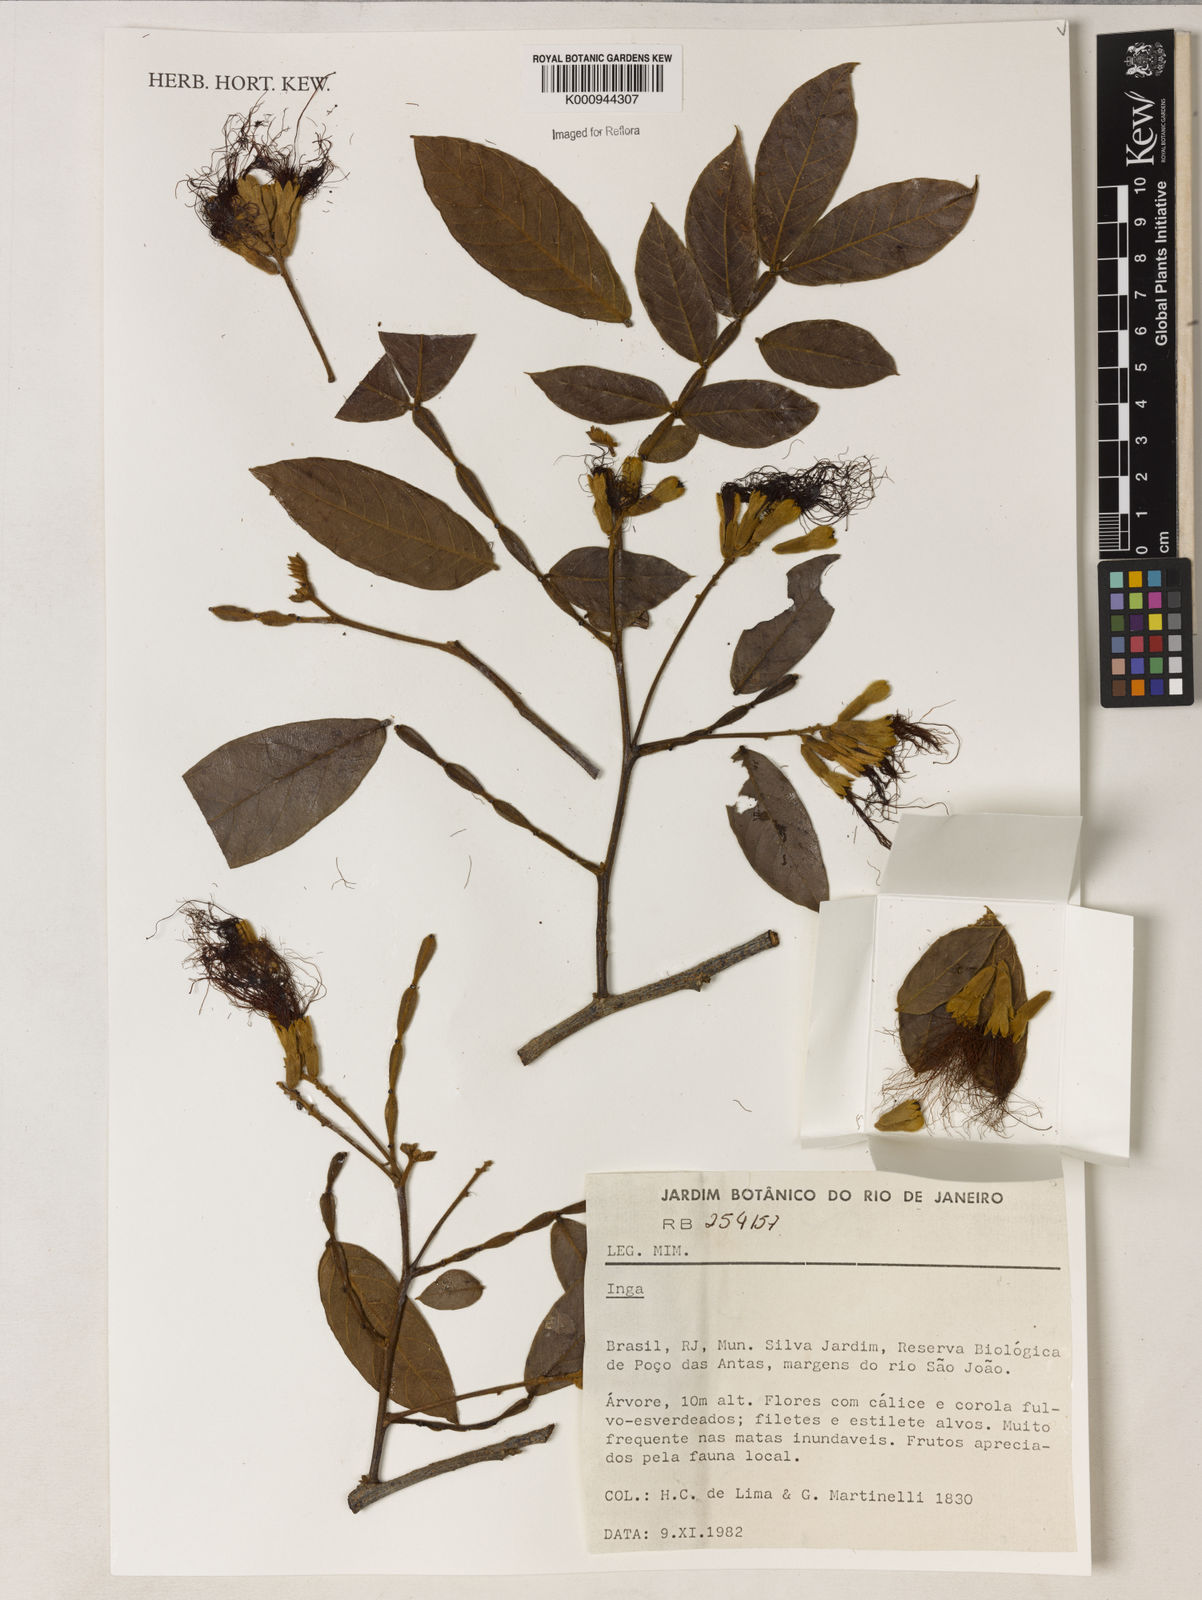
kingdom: Plantae
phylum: Tracheophyta
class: Magnoliopsida
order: Fabales
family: Fabaceae
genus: Inga
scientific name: Inga
